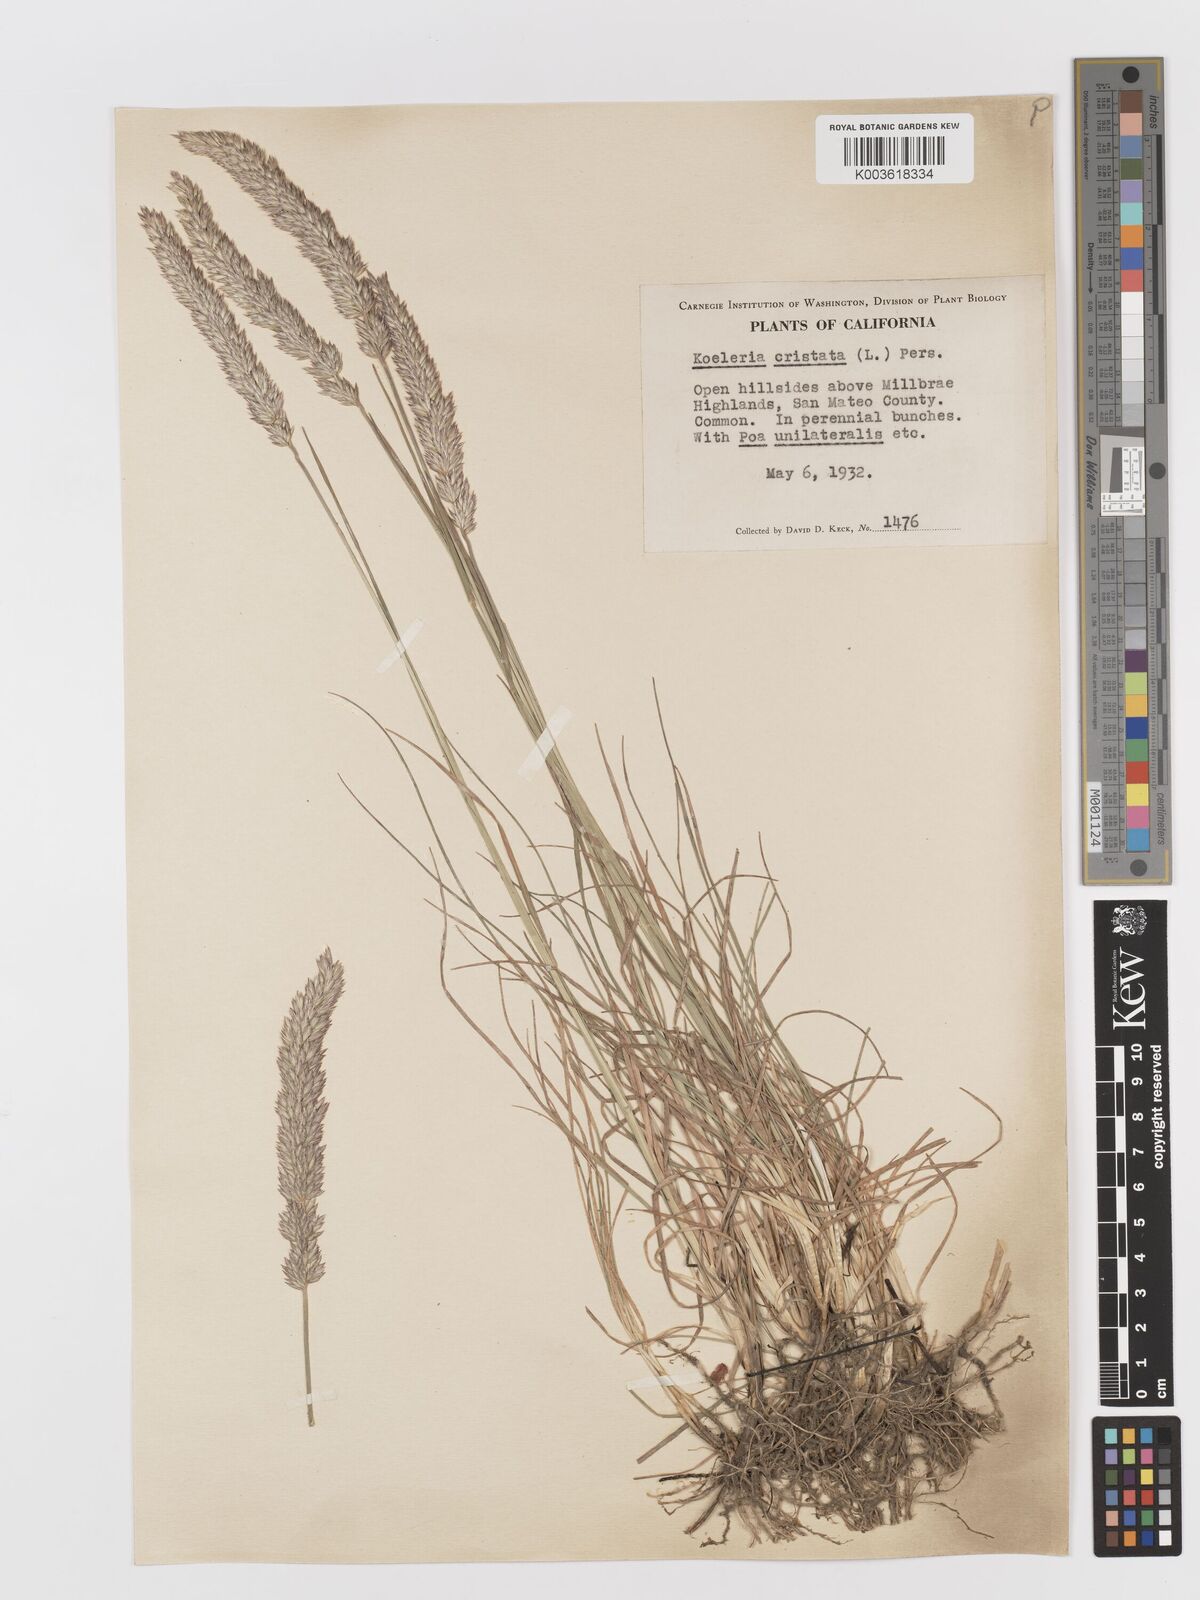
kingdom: Plantae
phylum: Tracheophyta
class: Liliopsida
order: Poales
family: Poaceae
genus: Koeleria
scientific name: Koeleria
